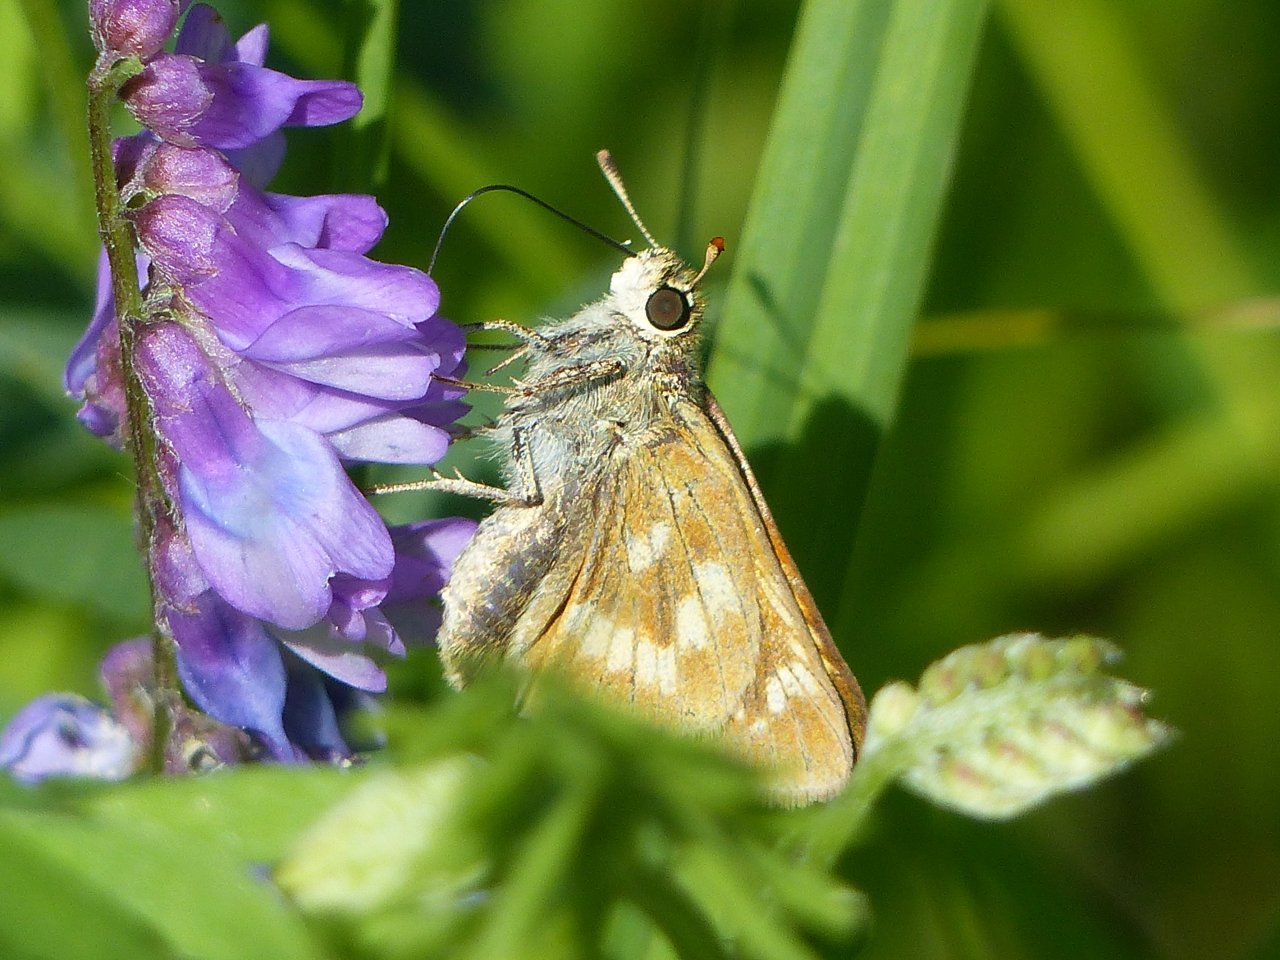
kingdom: Animalia
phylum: Arthropoda
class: Insecta
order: Lepidoptera
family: Hesperiidae
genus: Polites
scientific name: Polites
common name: Long Dash Skipper
